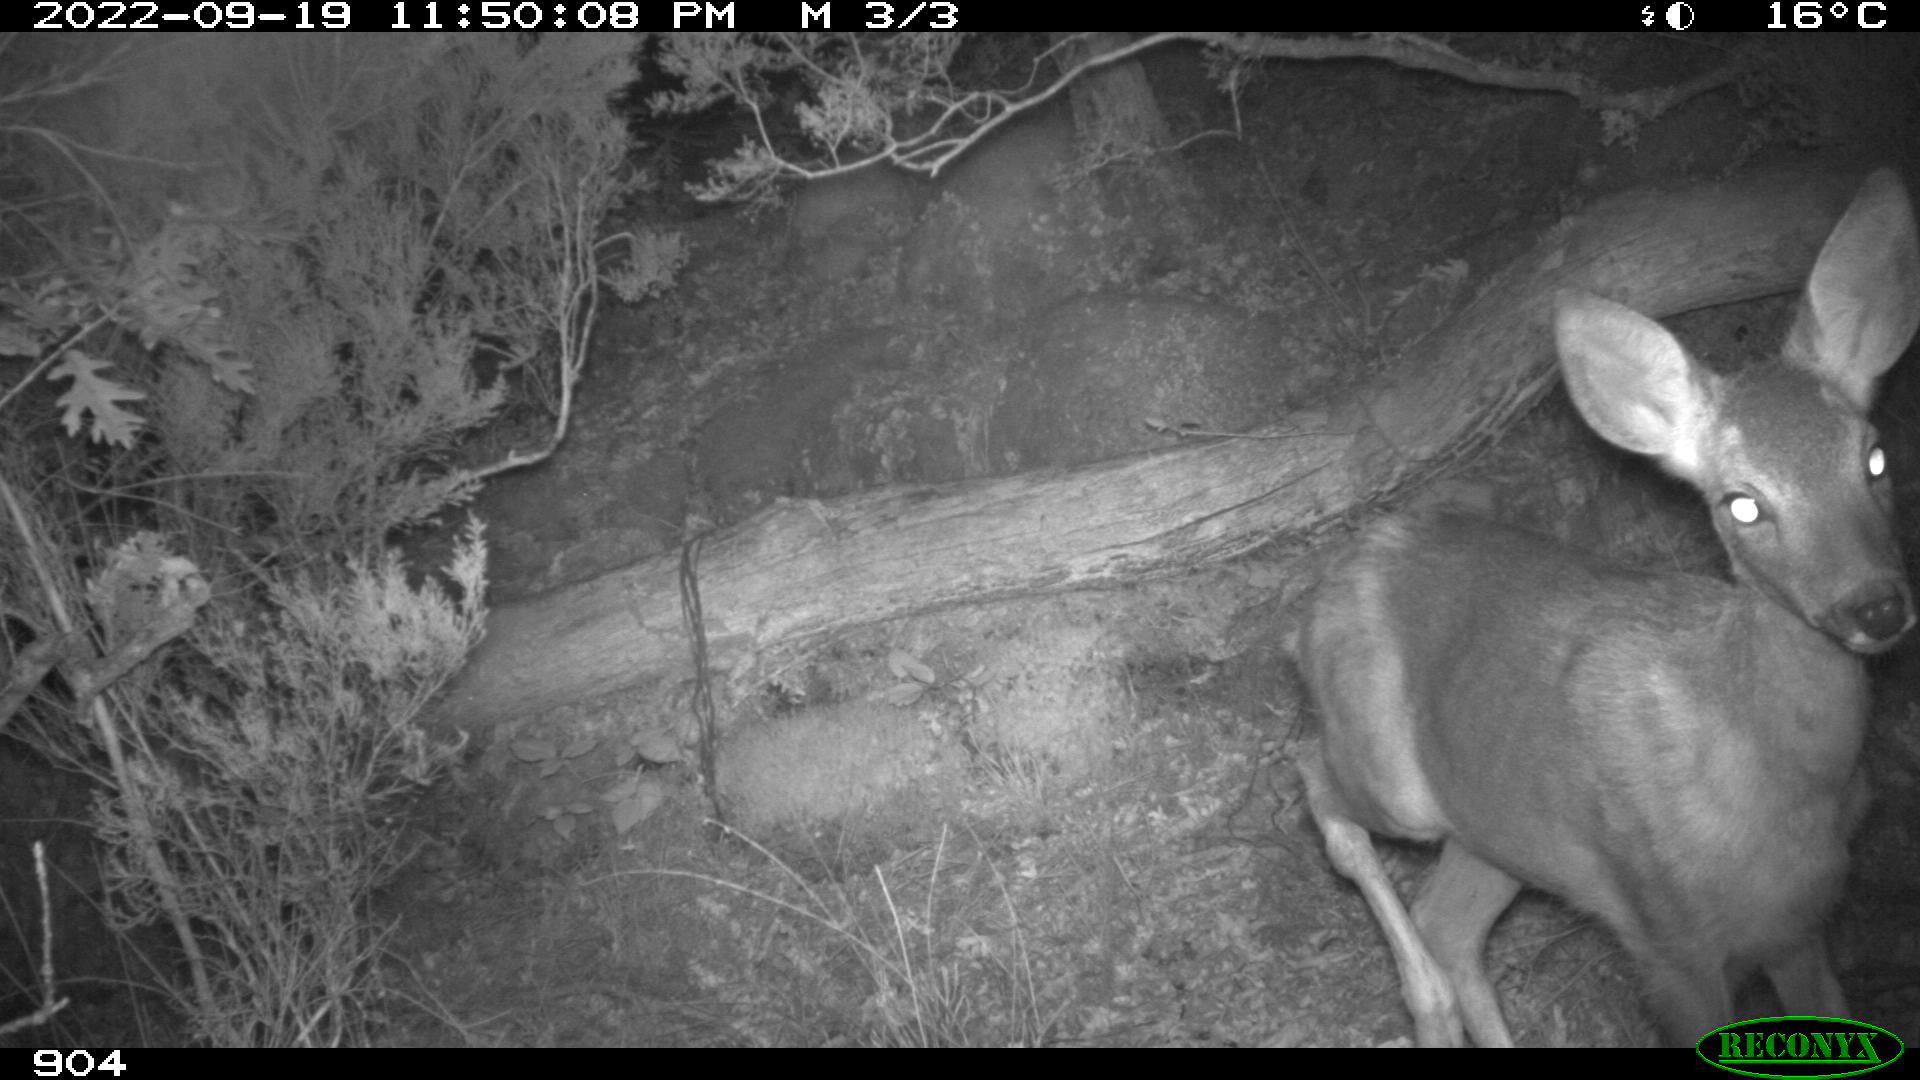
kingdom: Animalia
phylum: Chordata
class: Mammalia
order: Artiodactyla
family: Cervidae
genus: Capreolus
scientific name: Capreolus capreolus
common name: Western roe deer
